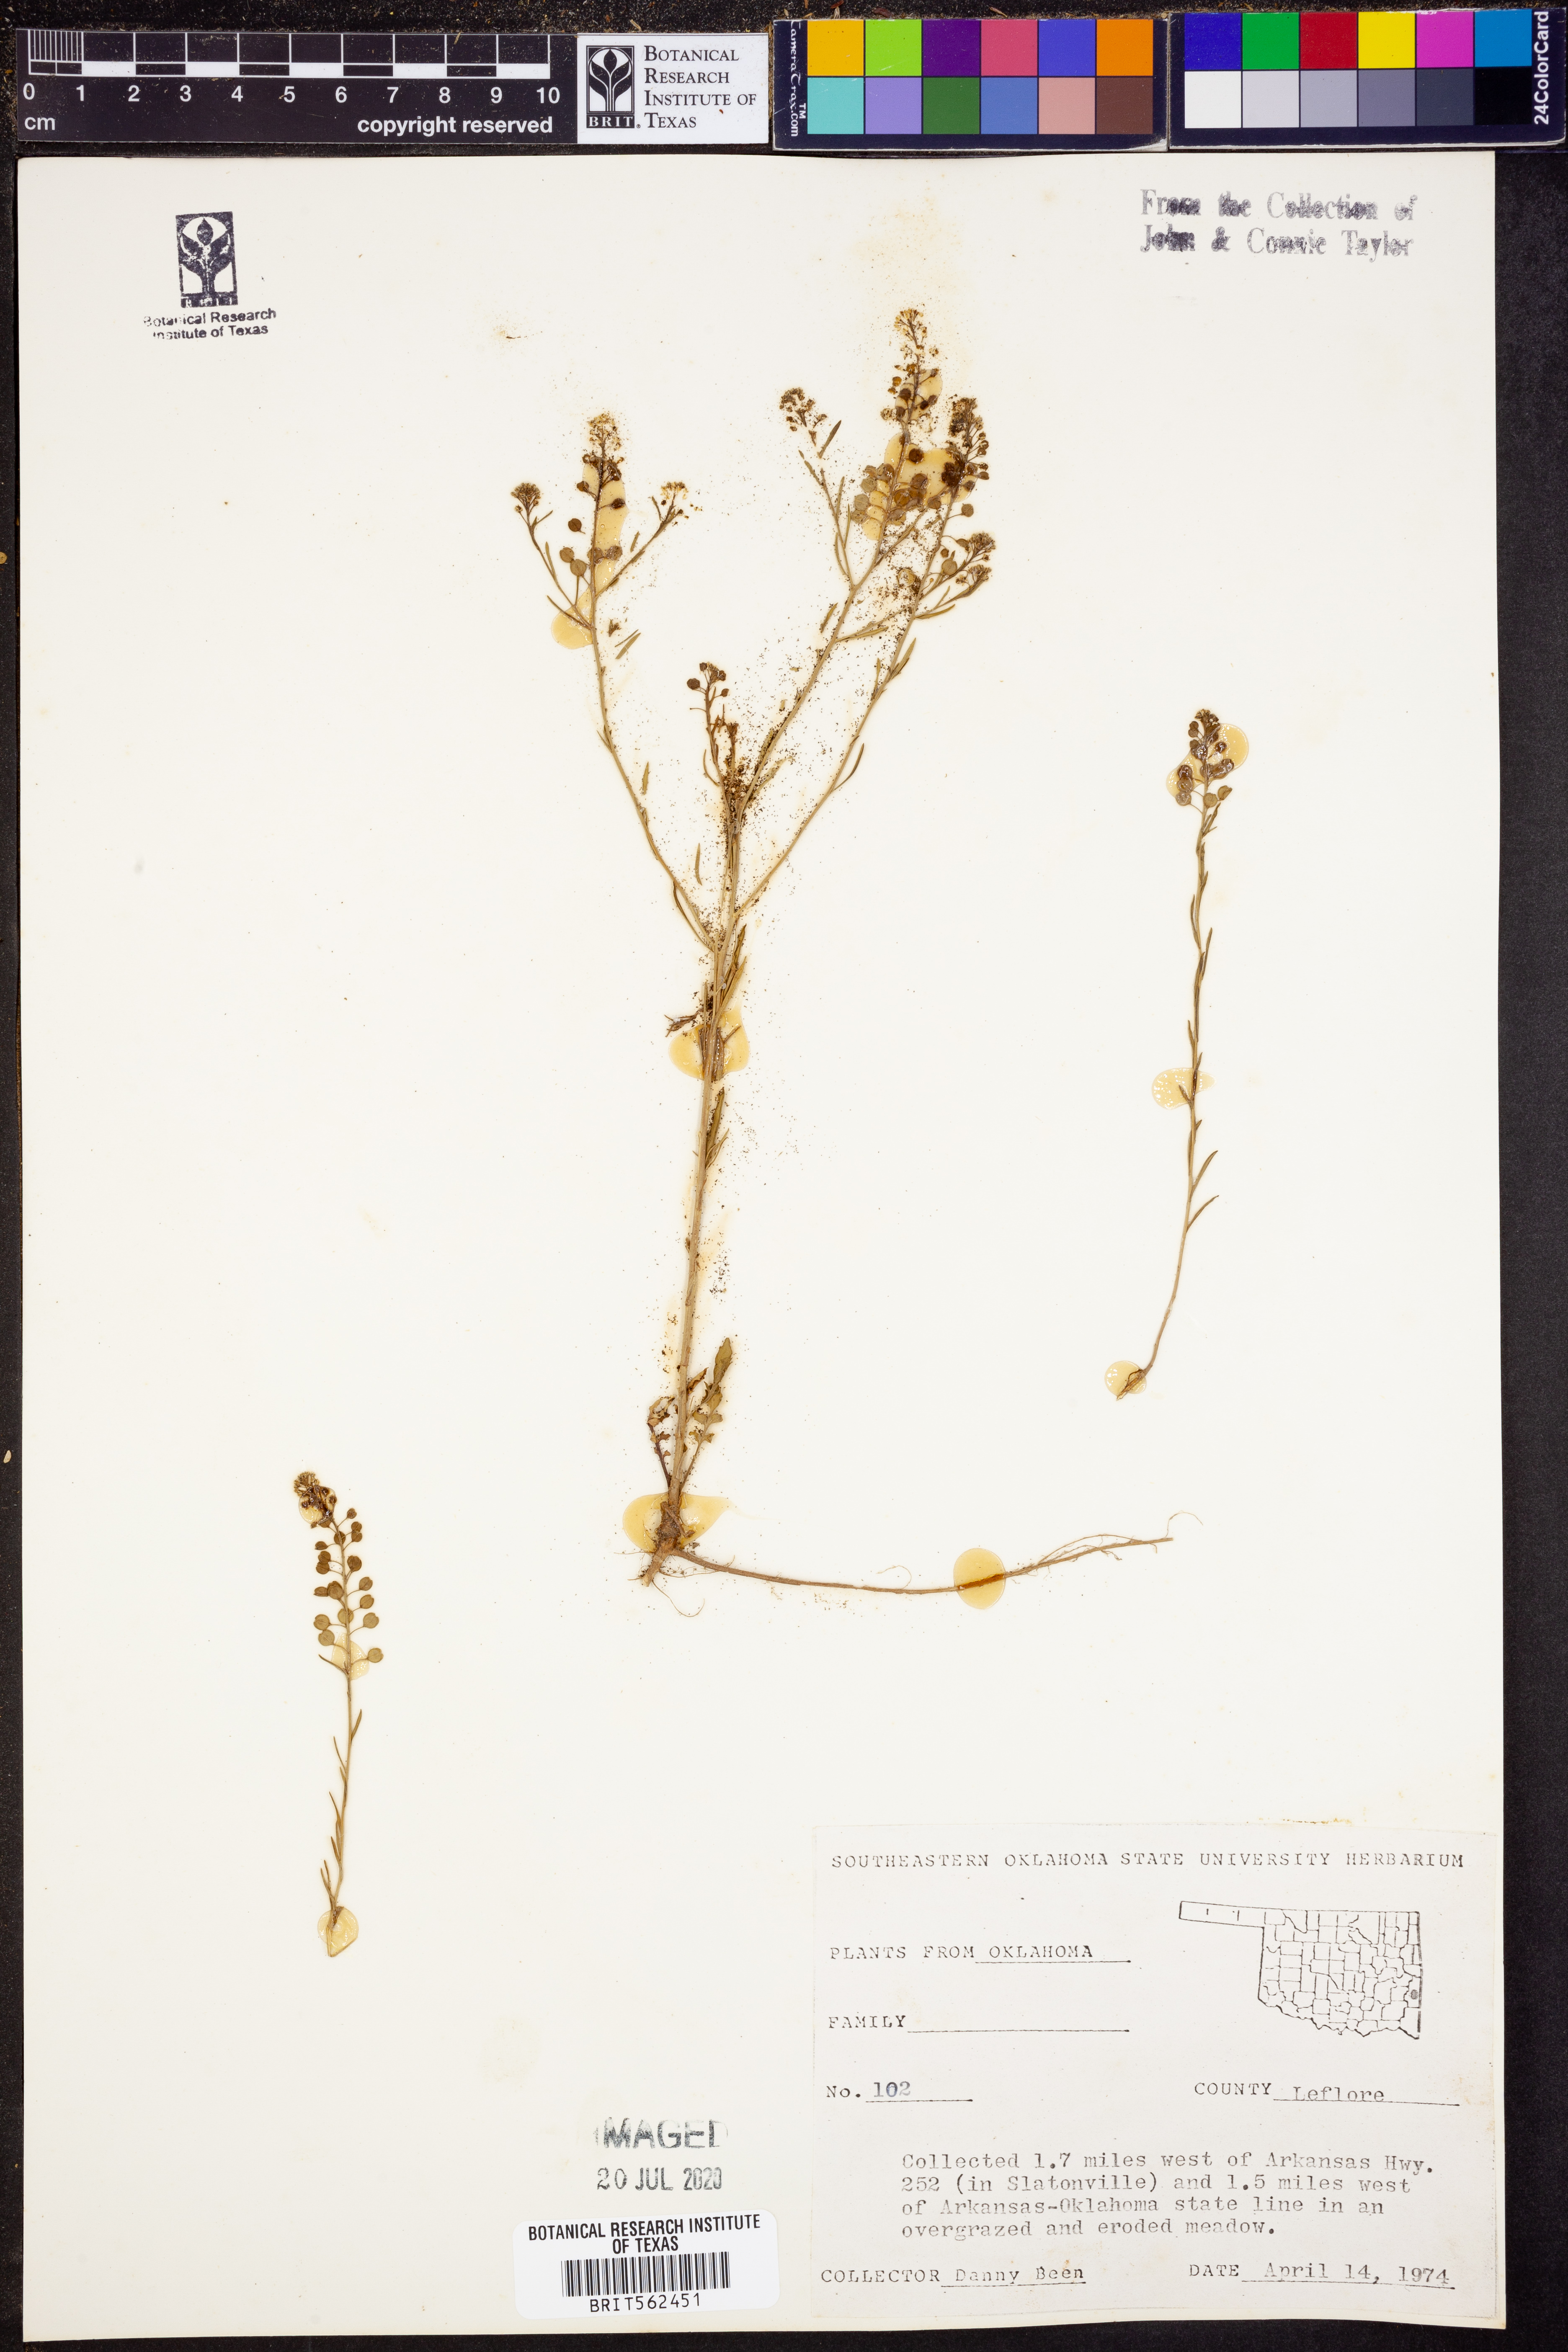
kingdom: Plantae
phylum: Tracheophyta
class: Magnoliopsida
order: Brassicales
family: Brassicaceae
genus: Lepidium
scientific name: Lepidium
